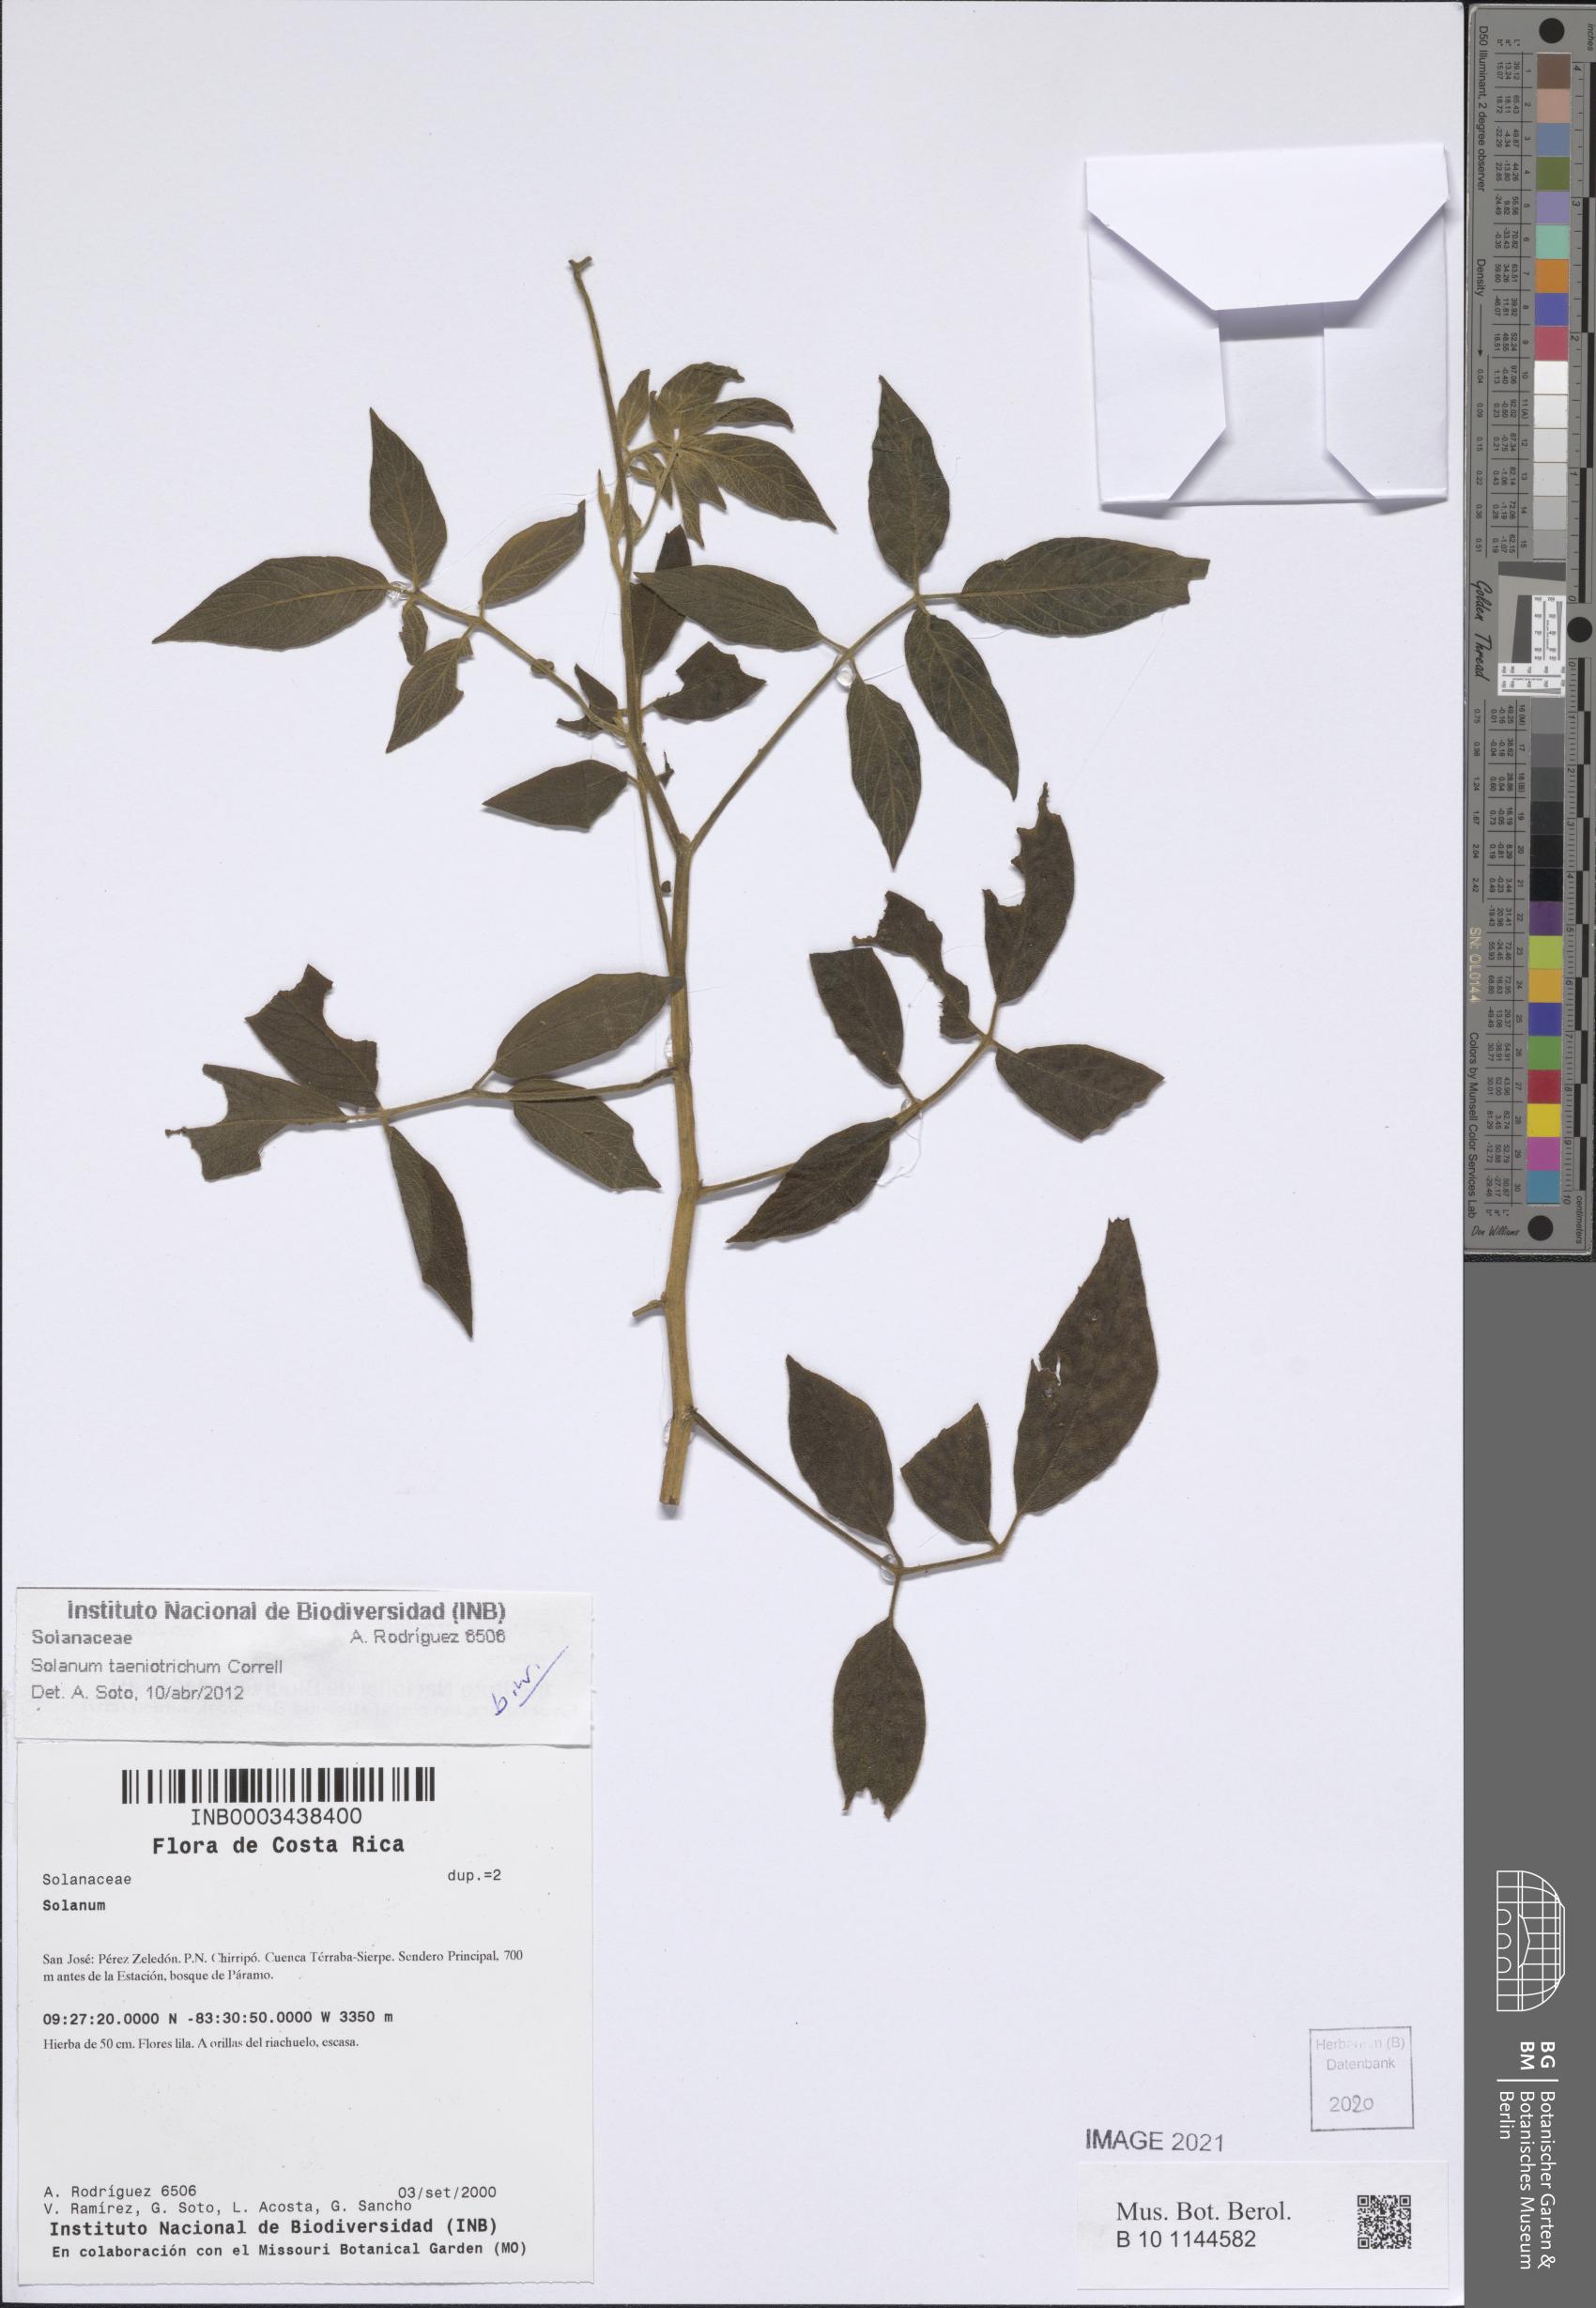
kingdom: Plantae
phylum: Tracheophyta
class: Magnoliopsida
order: Solanales
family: Solanaceae
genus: Solanum
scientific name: Solanum taeniotrichum
